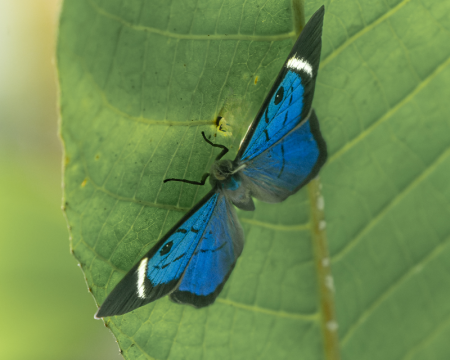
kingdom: Animalia
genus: Mesosemia
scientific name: Mesosemia asa
